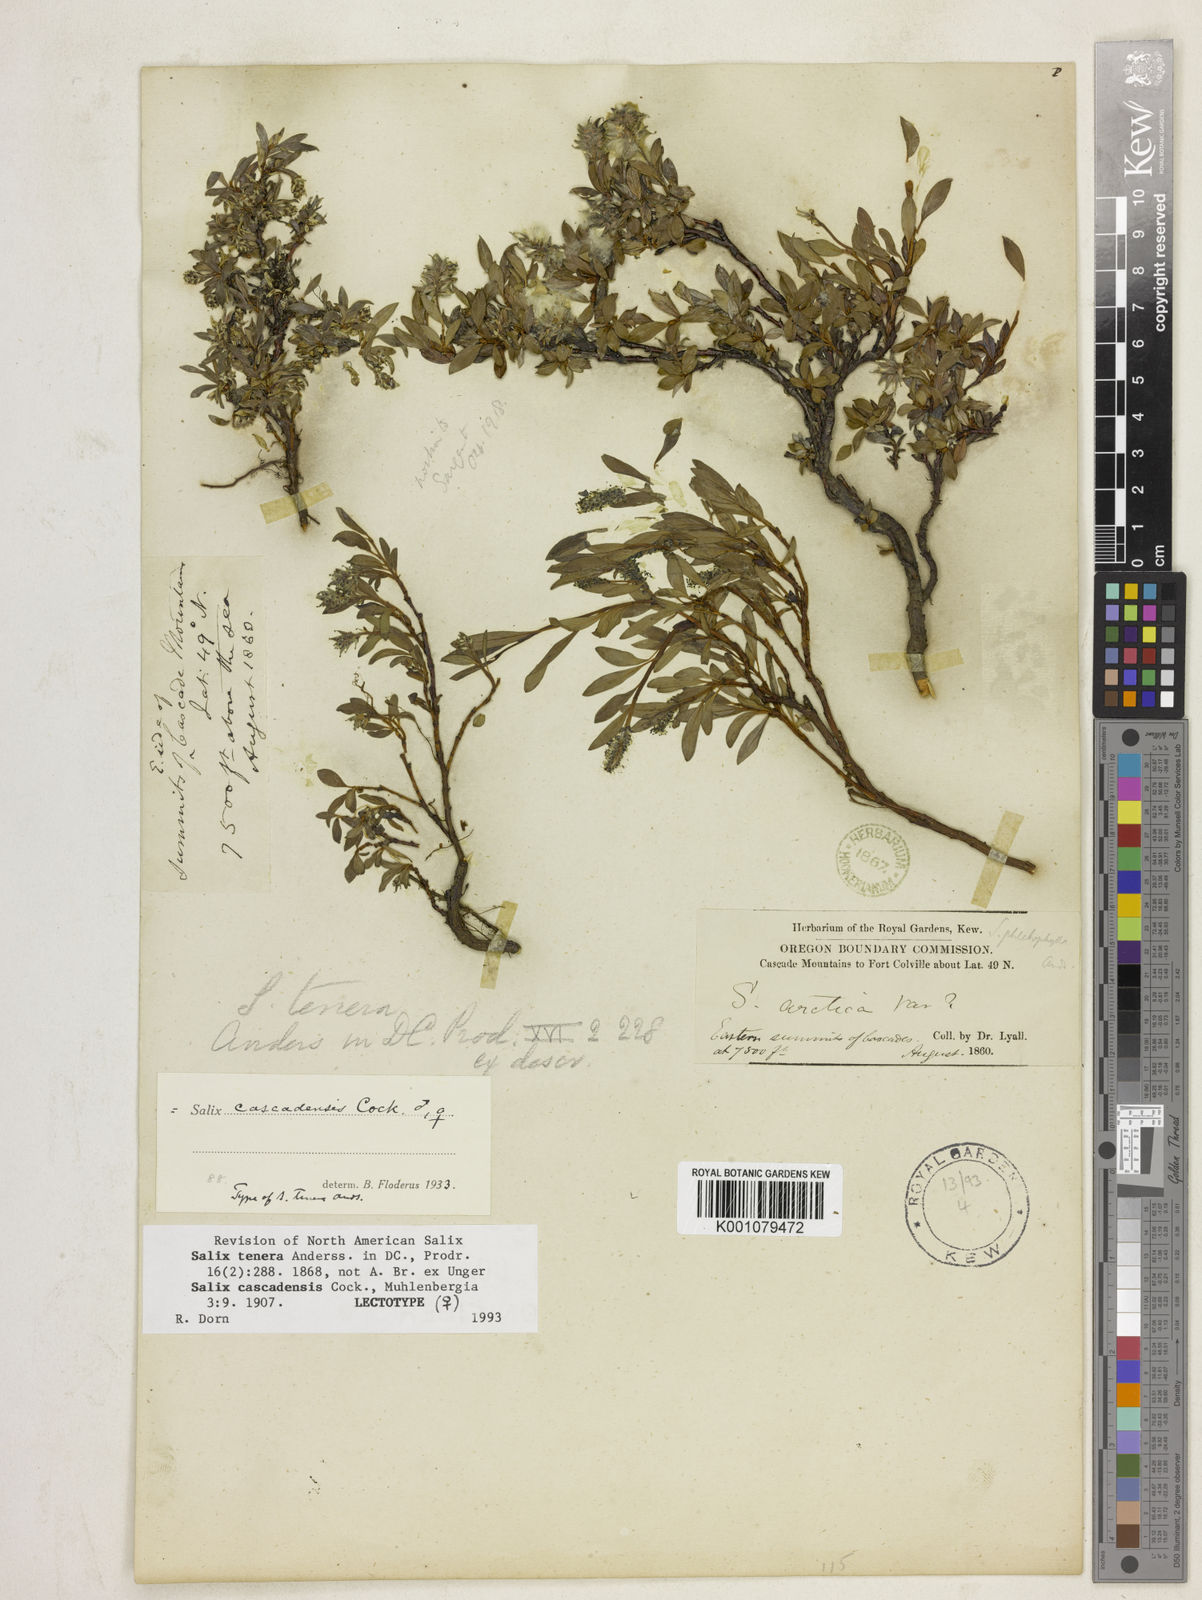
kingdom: Plantae
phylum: Tracheophyta
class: Magnoliopsida
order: Malpighiales
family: Salicaceae
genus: Salix
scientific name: Salix cascadensis
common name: Cascade willow
